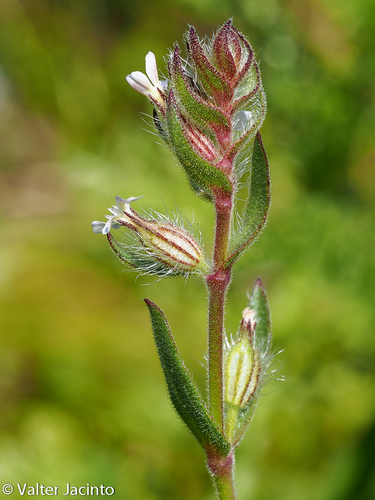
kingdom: Plantae
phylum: Tracheophyta
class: Magnoliopsida
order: Caryophyllales
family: Caryophyllaceae
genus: Silene
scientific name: Silene gallica
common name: Small-flowered catchfly
